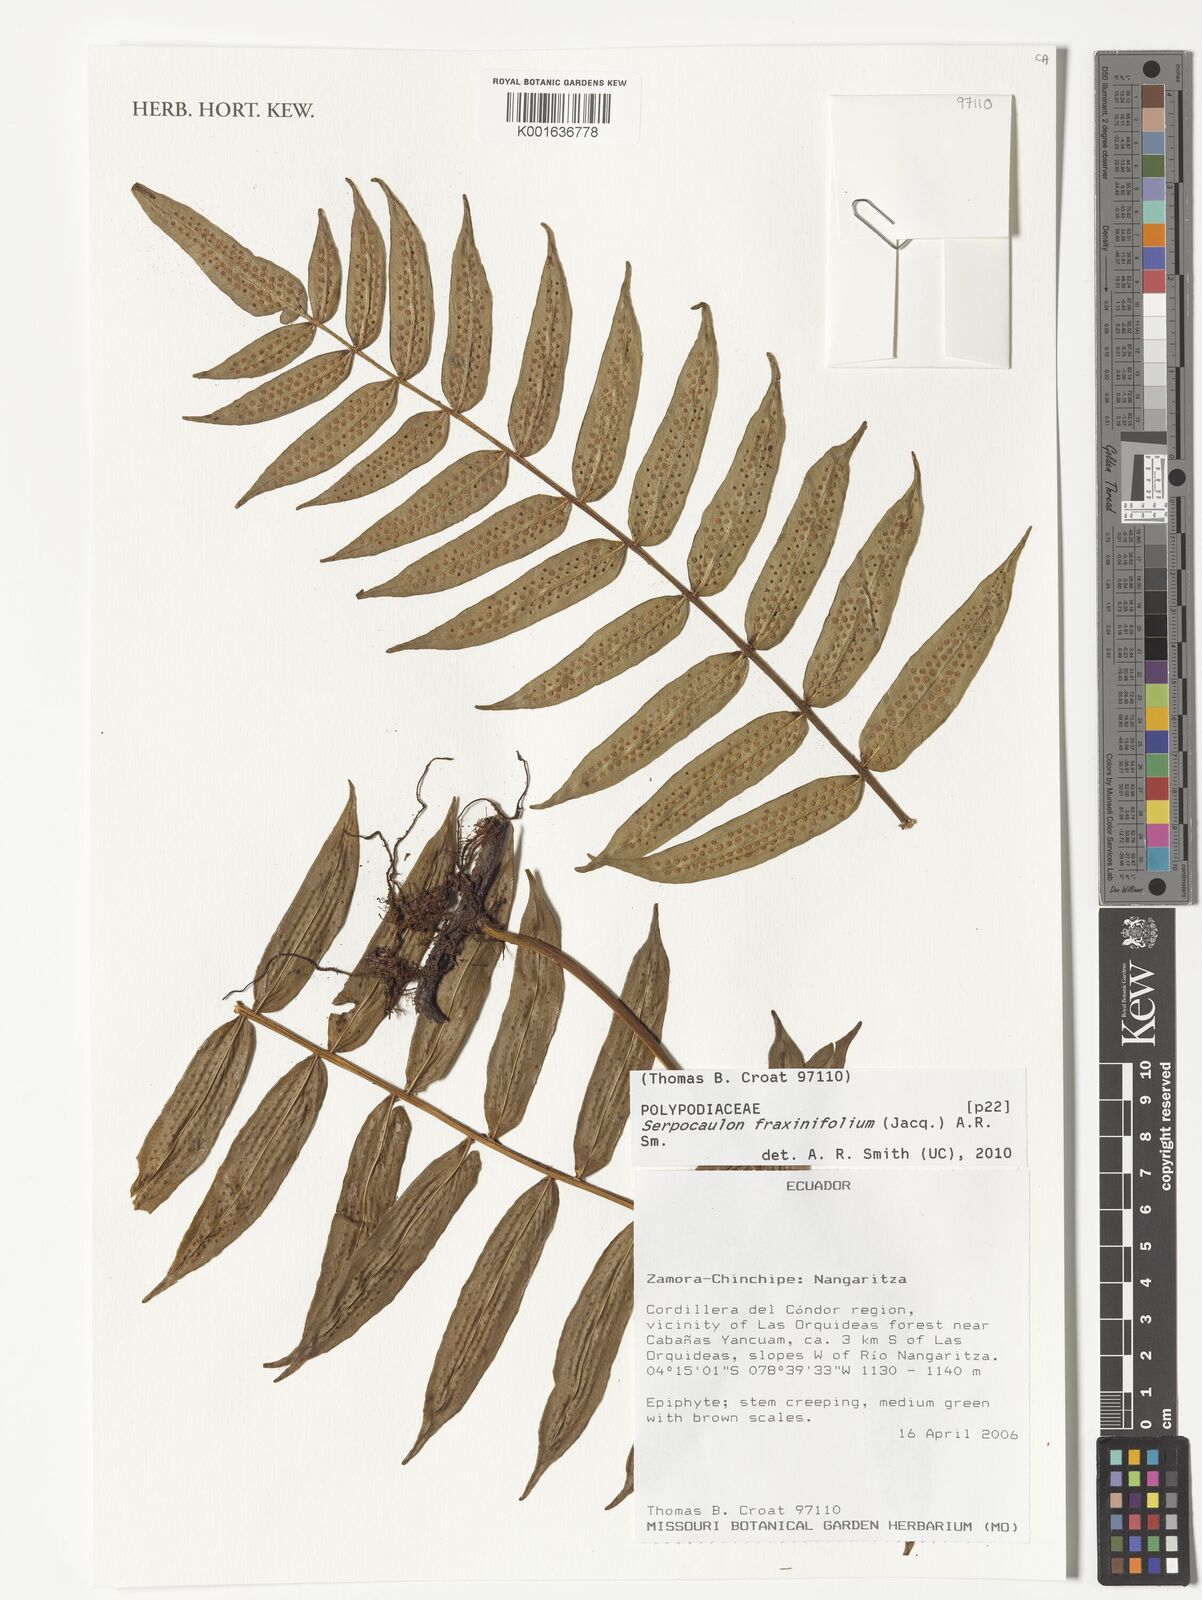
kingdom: Plantae
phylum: Tracheophyta
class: Polypodiopsida
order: Polypodiales
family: Polypodiaceae
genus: Serpocaulon
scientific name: Serpocaulon fraxinifolium
